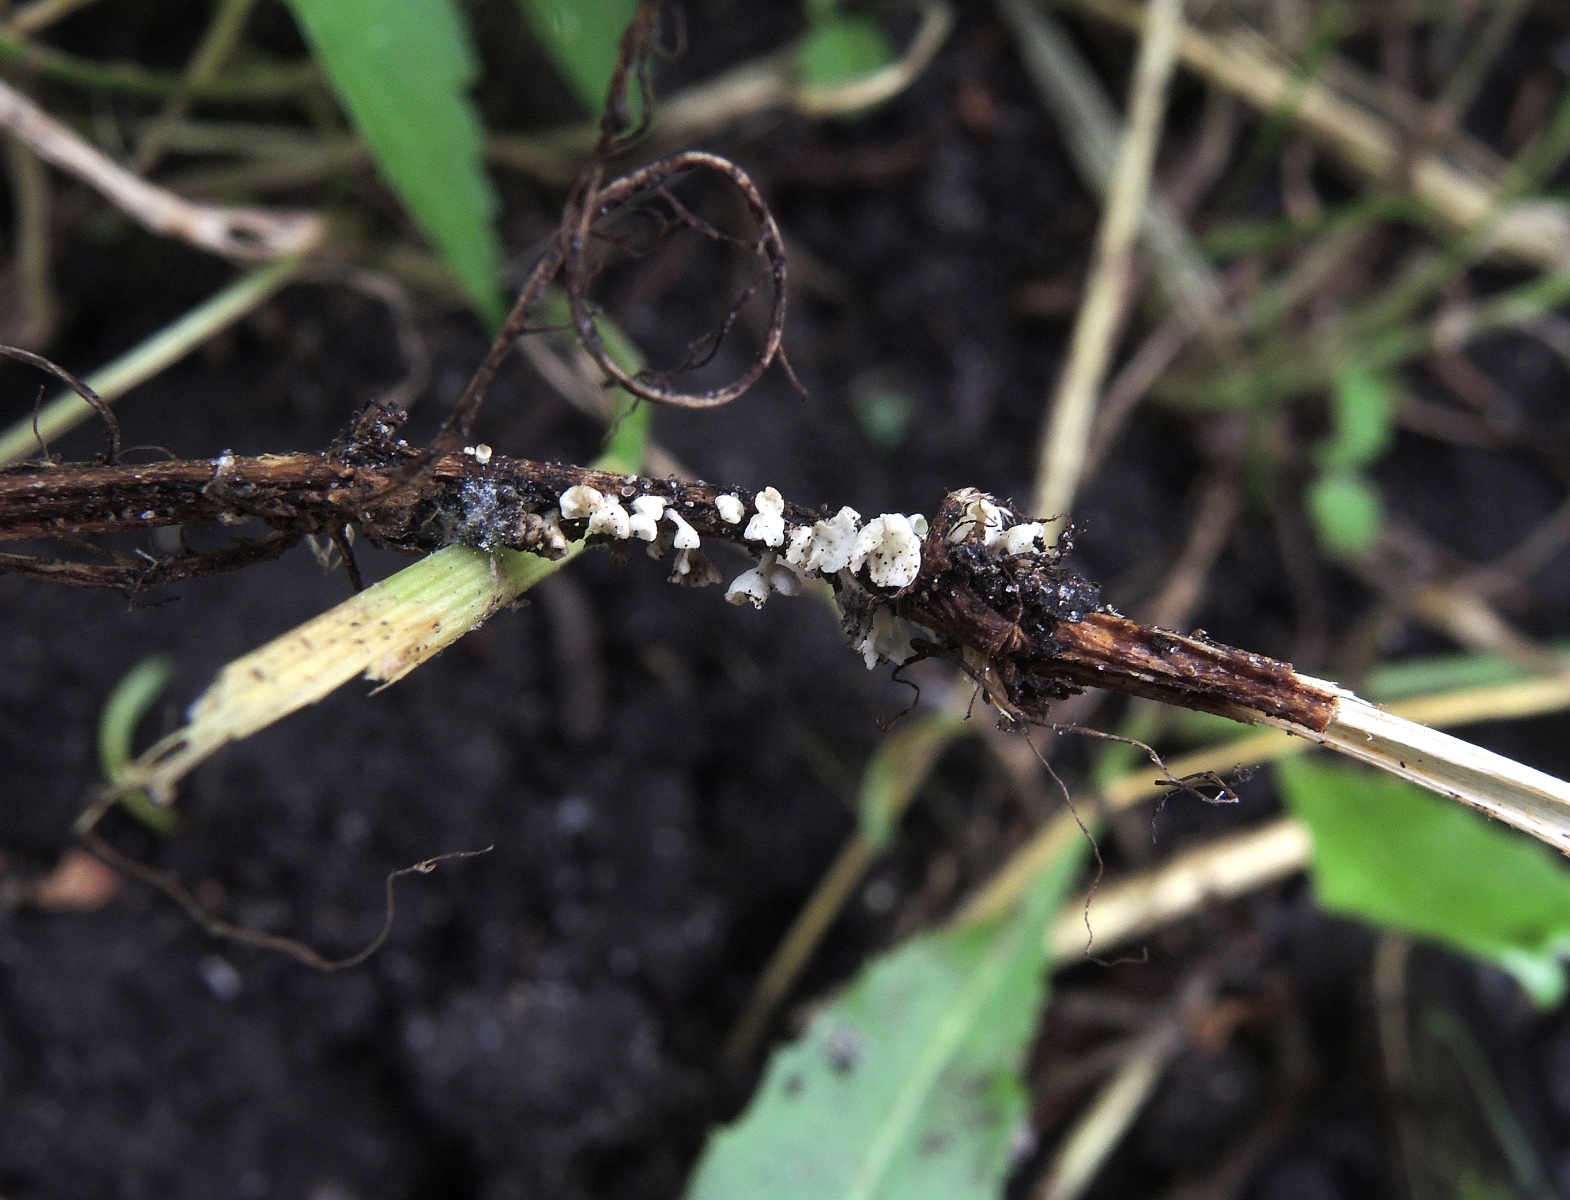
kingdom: Fungi
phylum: Basidiomycota
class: Agaricomycetes
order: Agaricales
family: Marasmiaceae
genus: Calyptella
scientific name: Calyptella capula
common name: hvidlig nældehue
